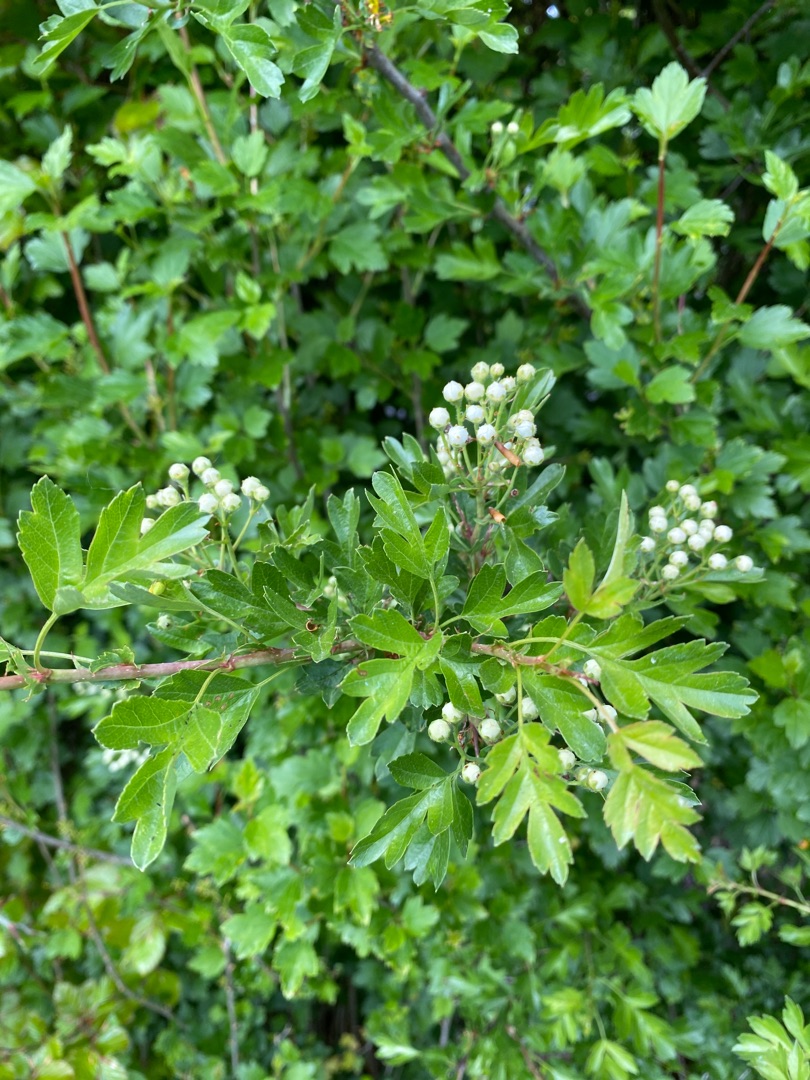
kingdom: Plantae
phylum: Tracheophyta
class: Magnoliopsida
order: Rosales
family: Rosaceae
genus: Crataegus
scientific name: Crataegus monogyna
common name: Engriflet hvidtjørn
